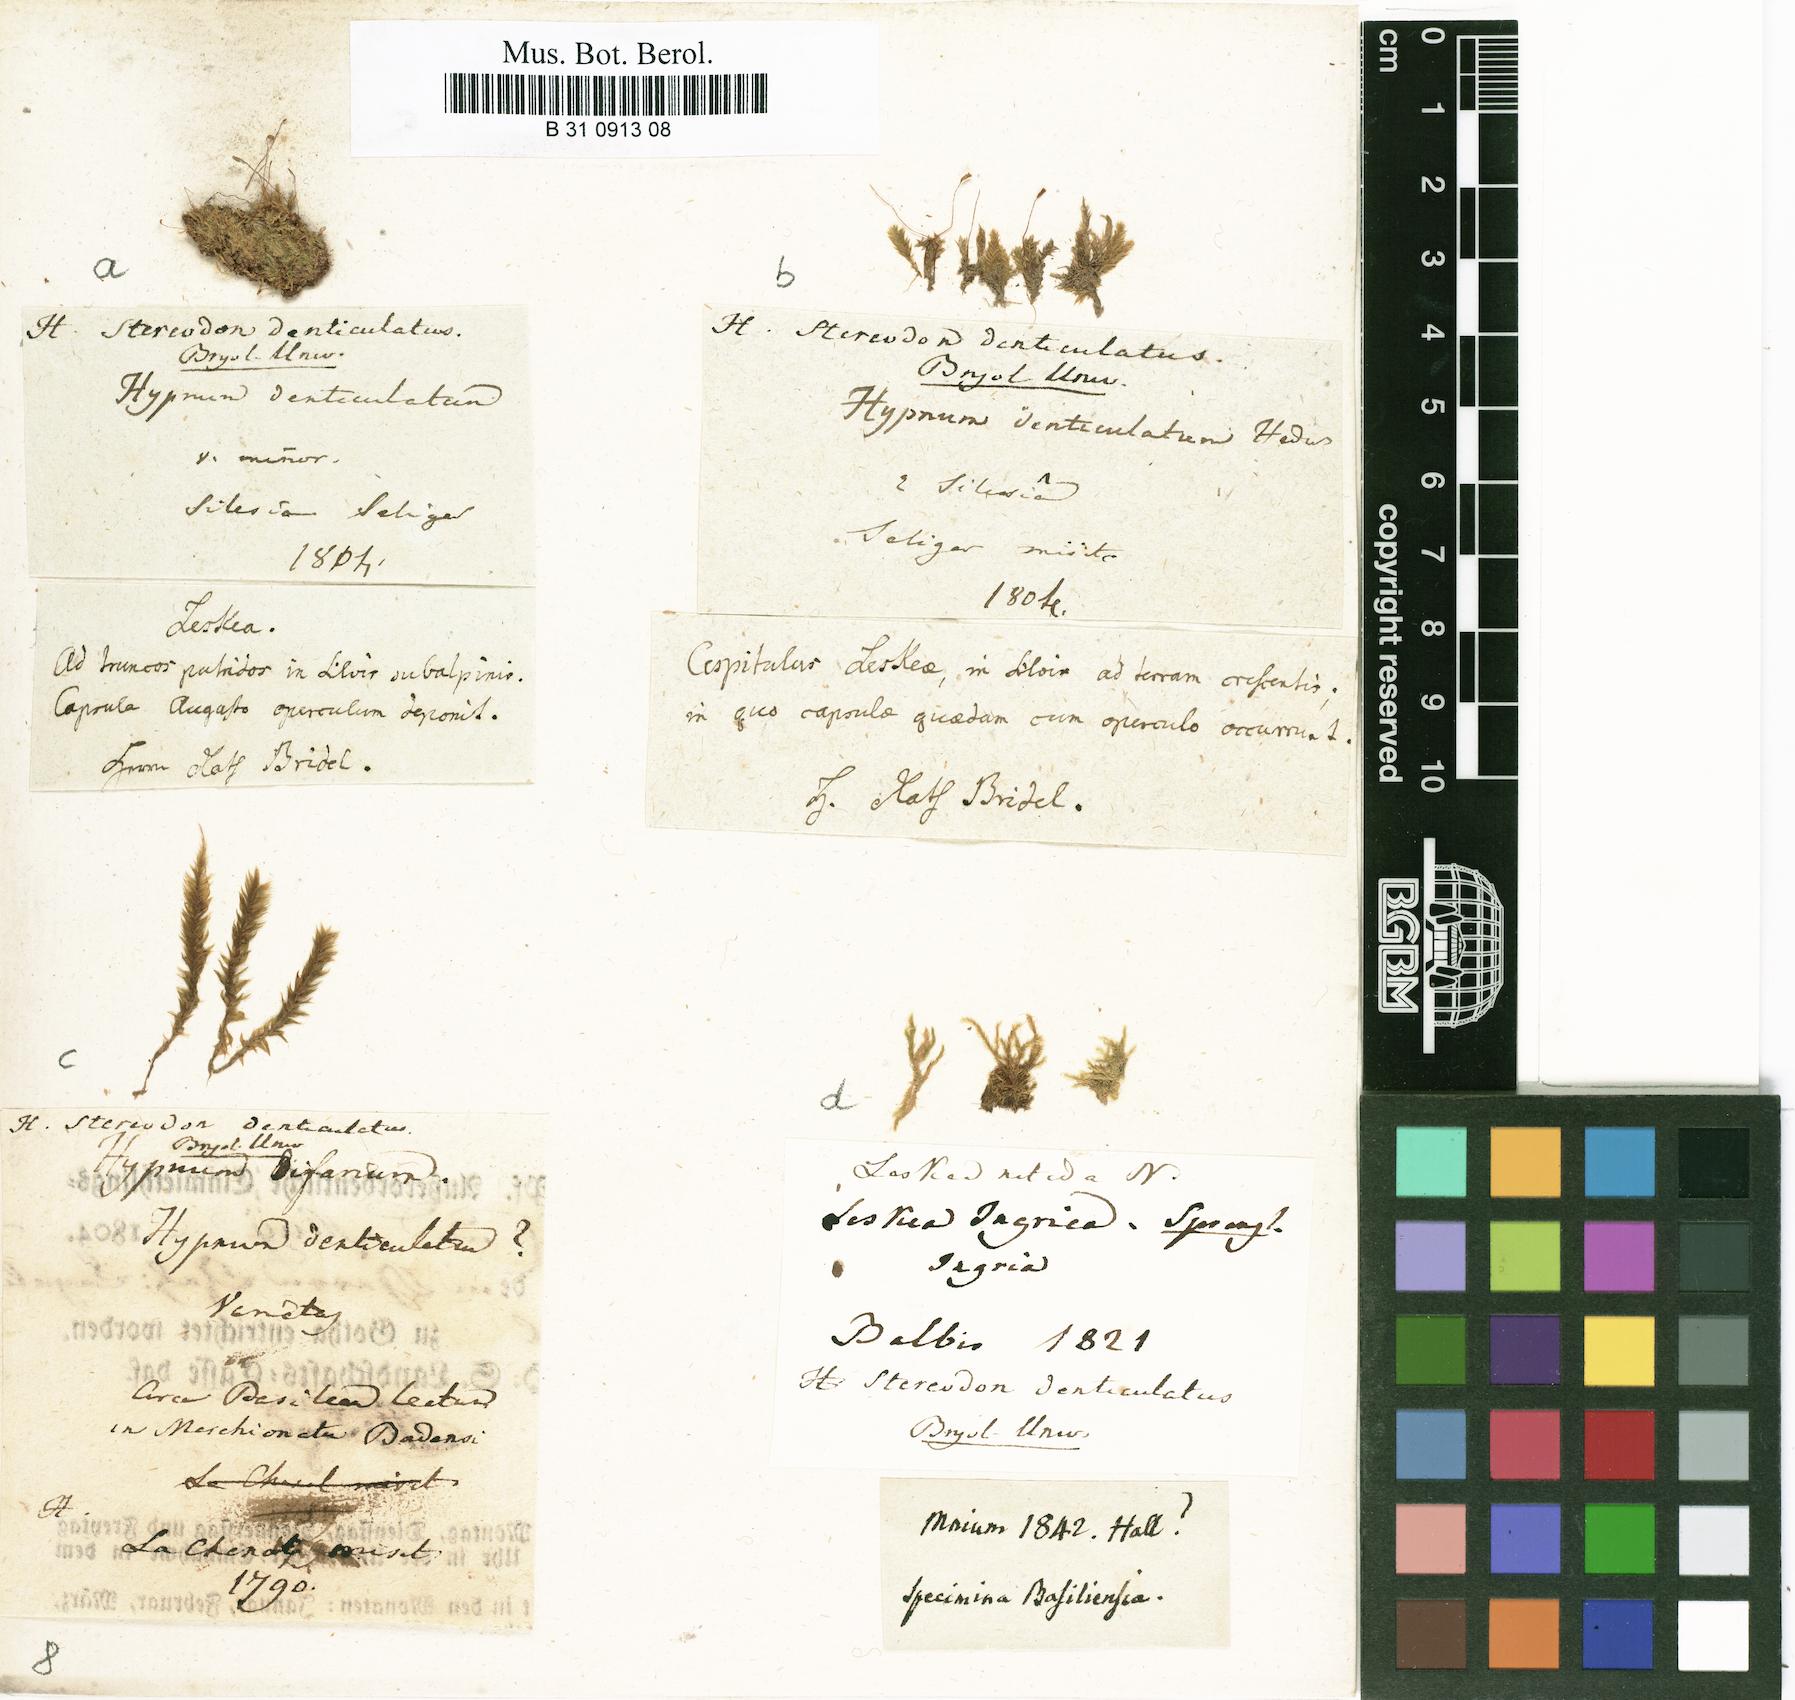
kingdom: Plantae
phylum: Bryophyta
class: Bryopsida
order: Hypnales
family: Plagiotheciaceae
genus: Plagiothecium
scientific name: Plagiothecium denticulatum
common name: Dented silk moss
